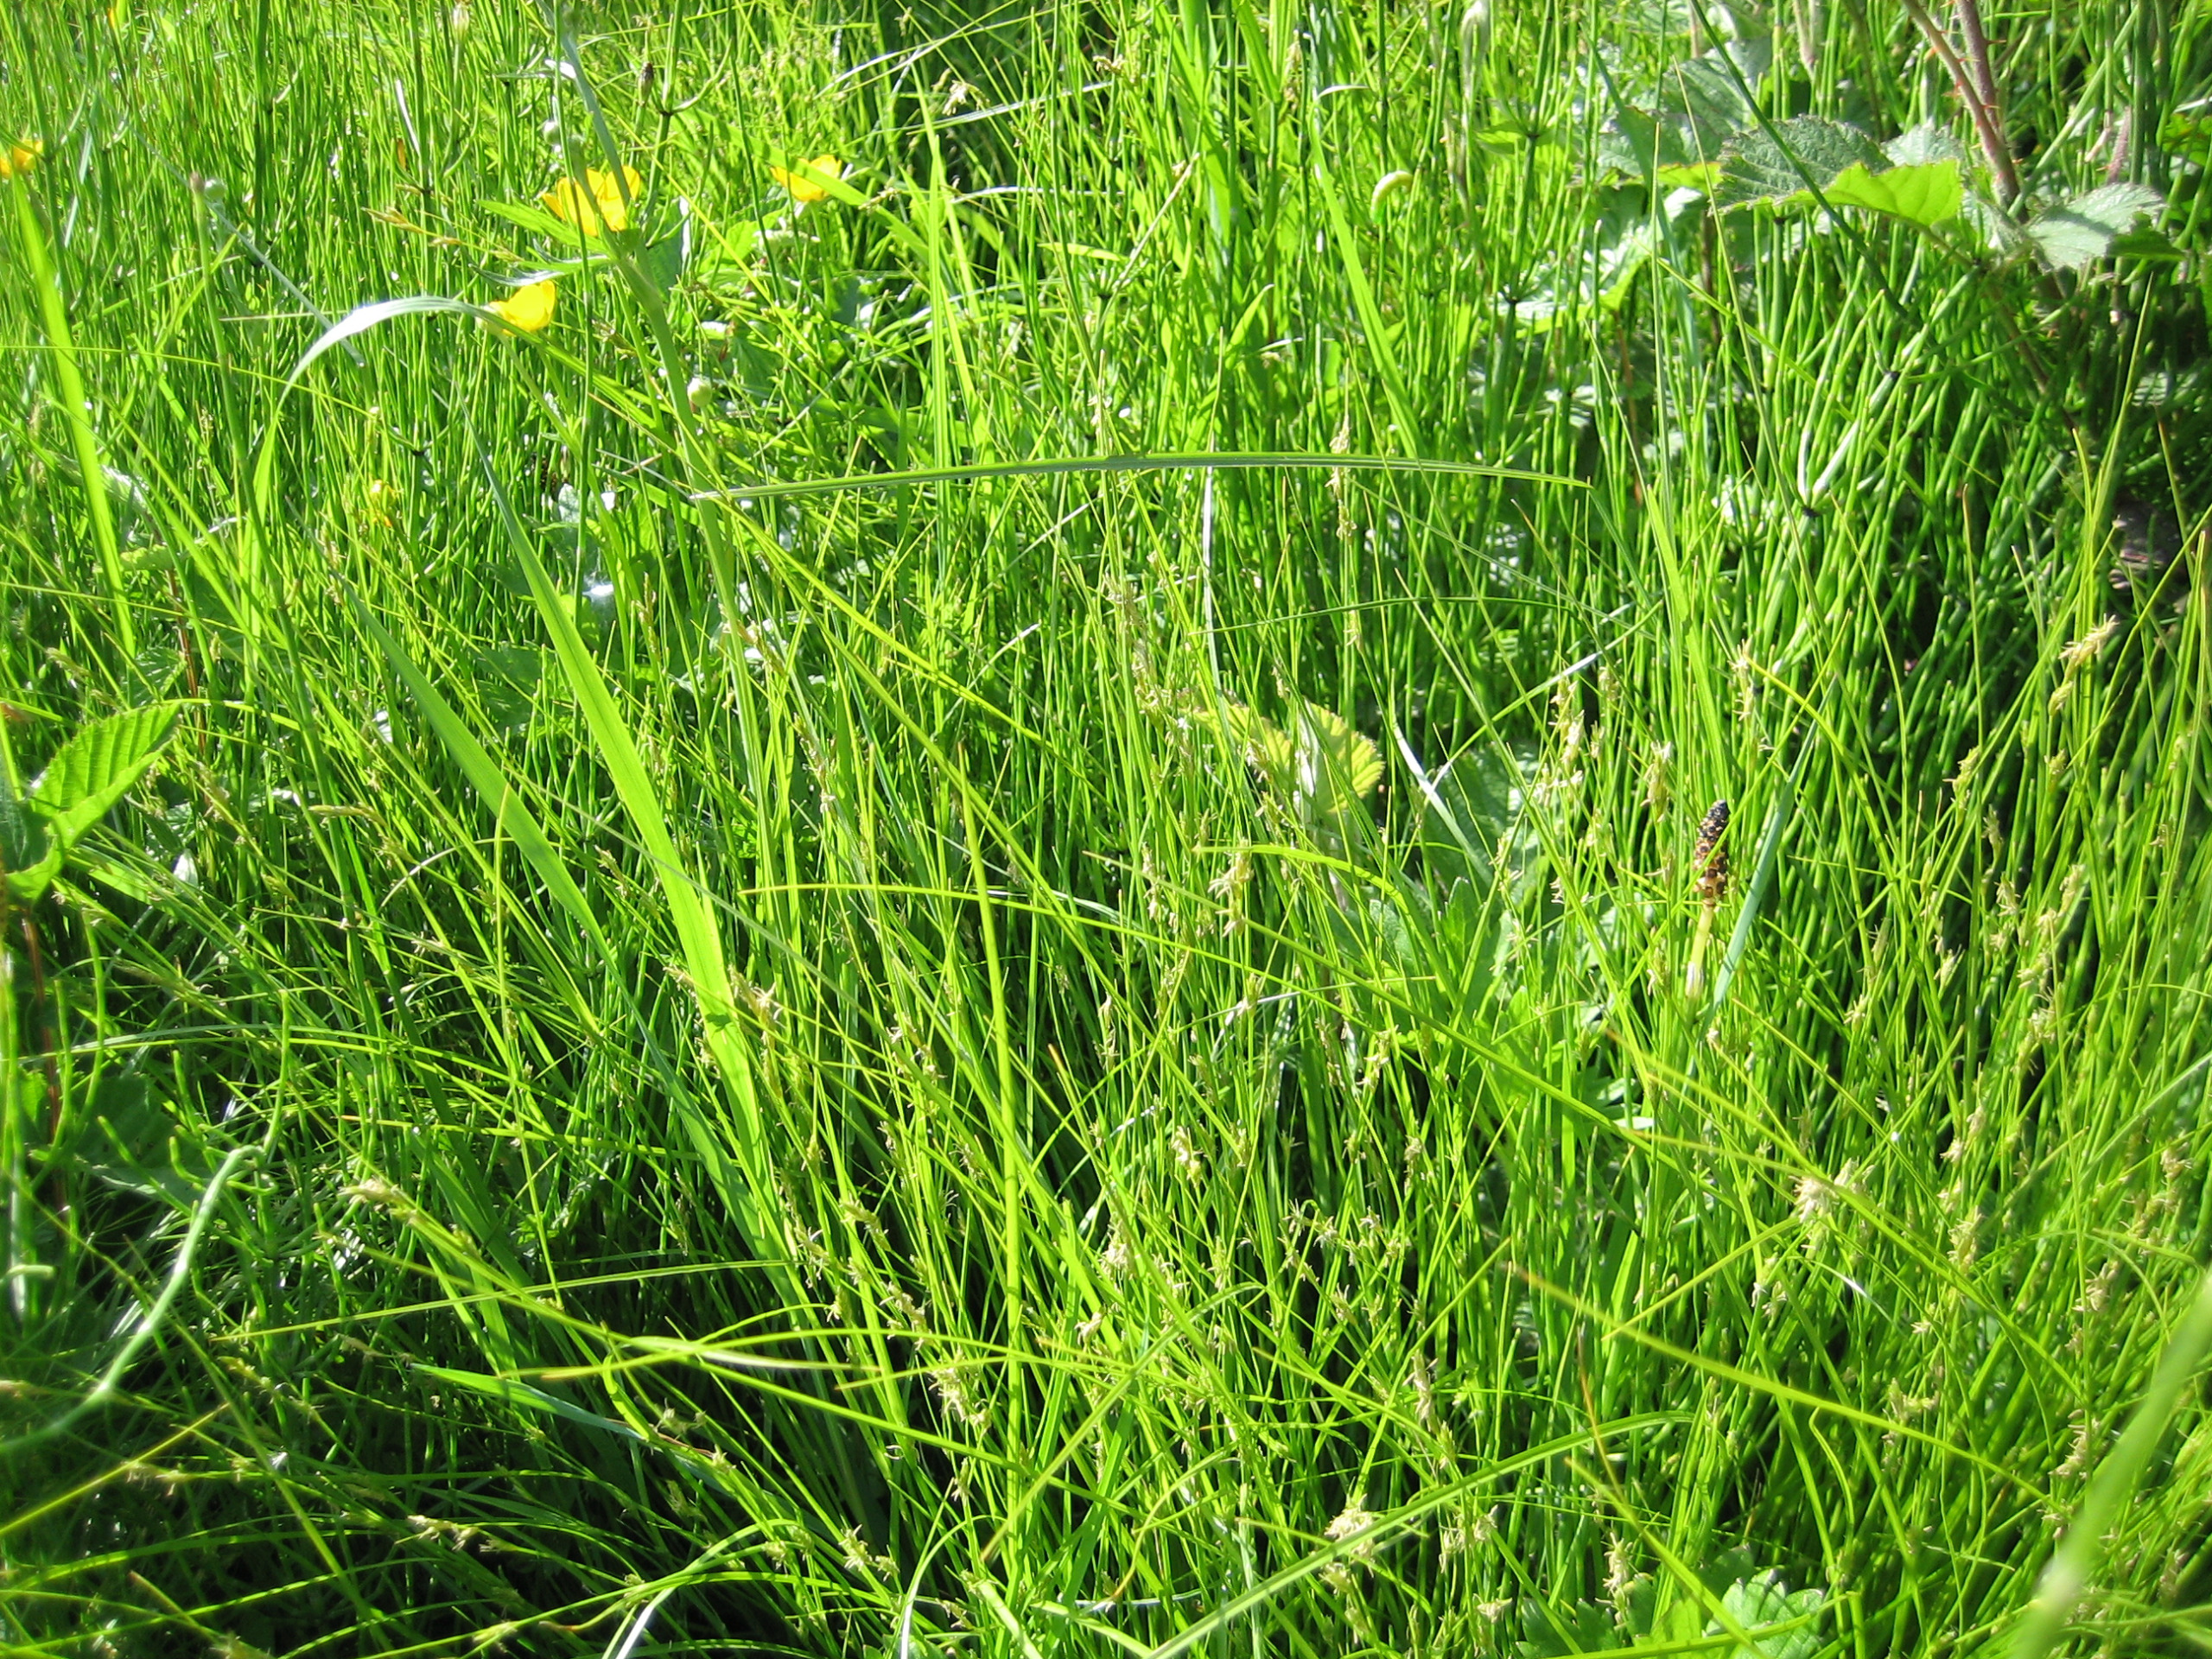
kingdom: Plantae
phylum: Tracheophyta
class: Liliopsida
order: Poales
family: Cyperaceae
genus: Carex
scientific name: Carex remota
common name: Akselblomstret star
